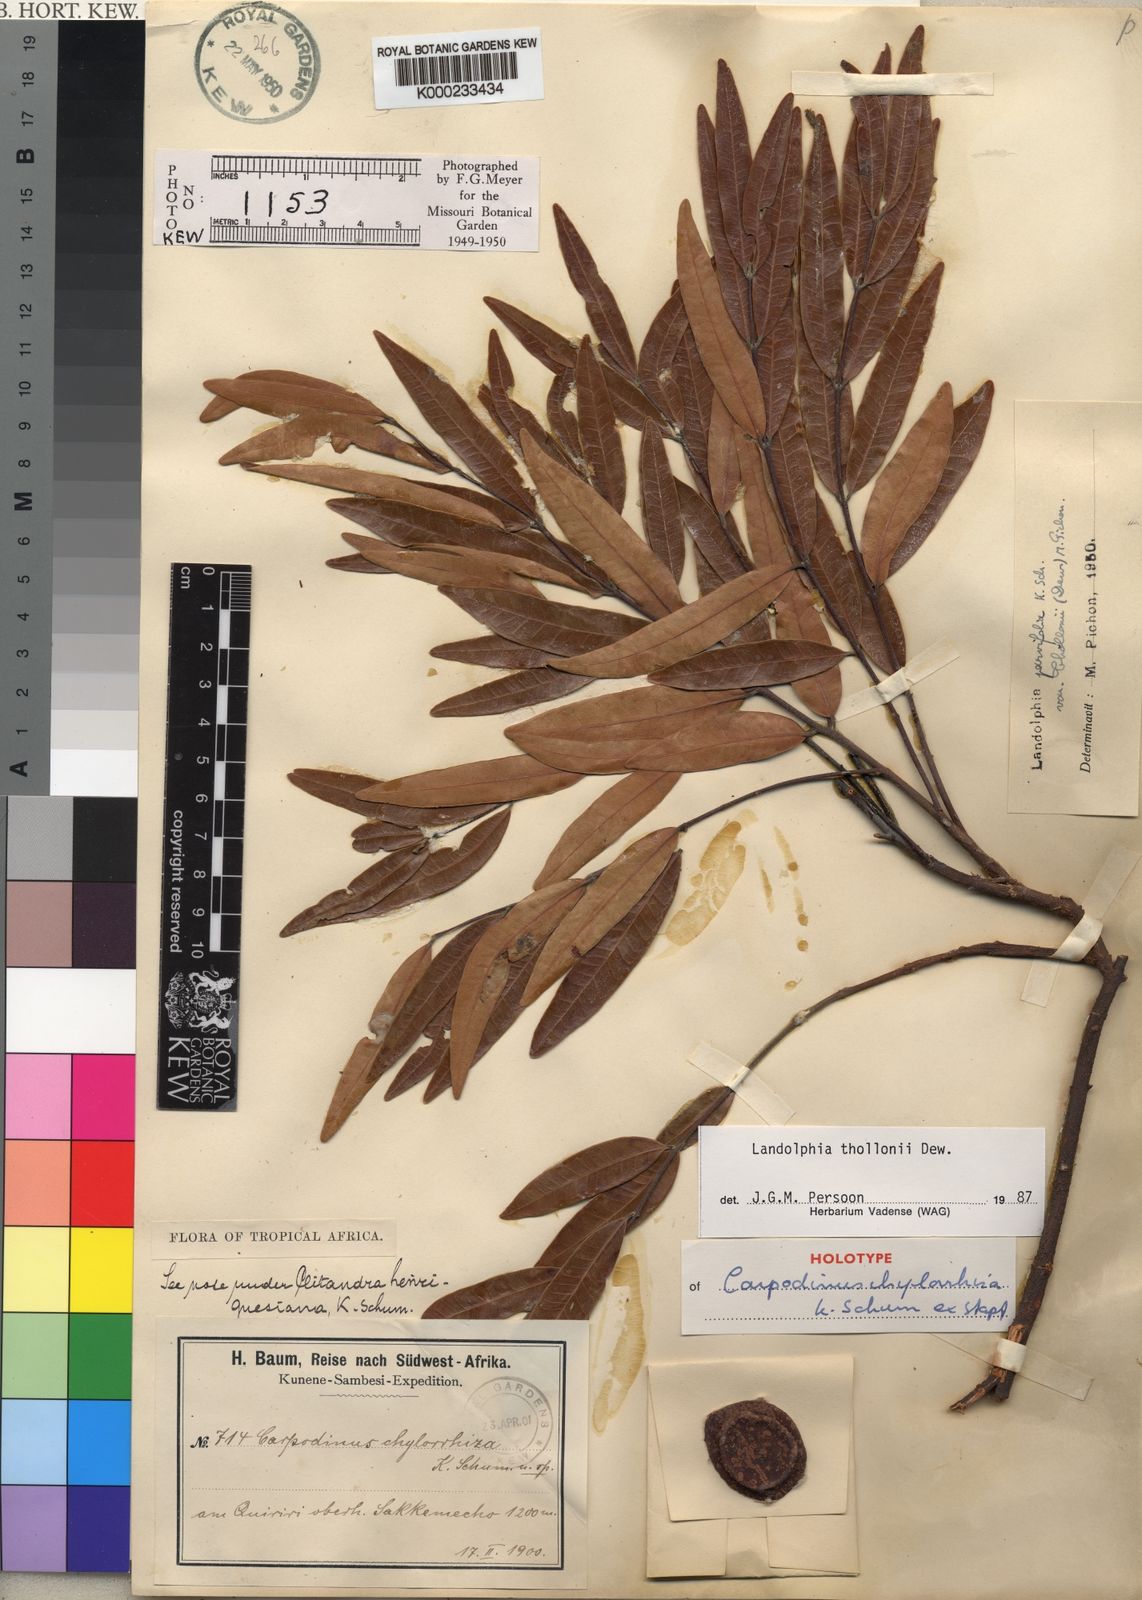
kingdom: Plantae
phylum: Tracheophyta
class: Magnoliopsida
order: Gentianales
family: Apocynaceae
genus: Landolphia
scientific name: Landolphia
